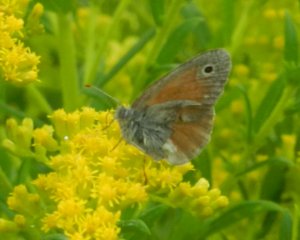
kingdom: Animalia
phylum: Arthropoda
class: Insecta
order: Lepidoptera
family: Nymphalidae
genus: Coenonympha
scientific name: Coenonympha tullia
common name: Large Heath
